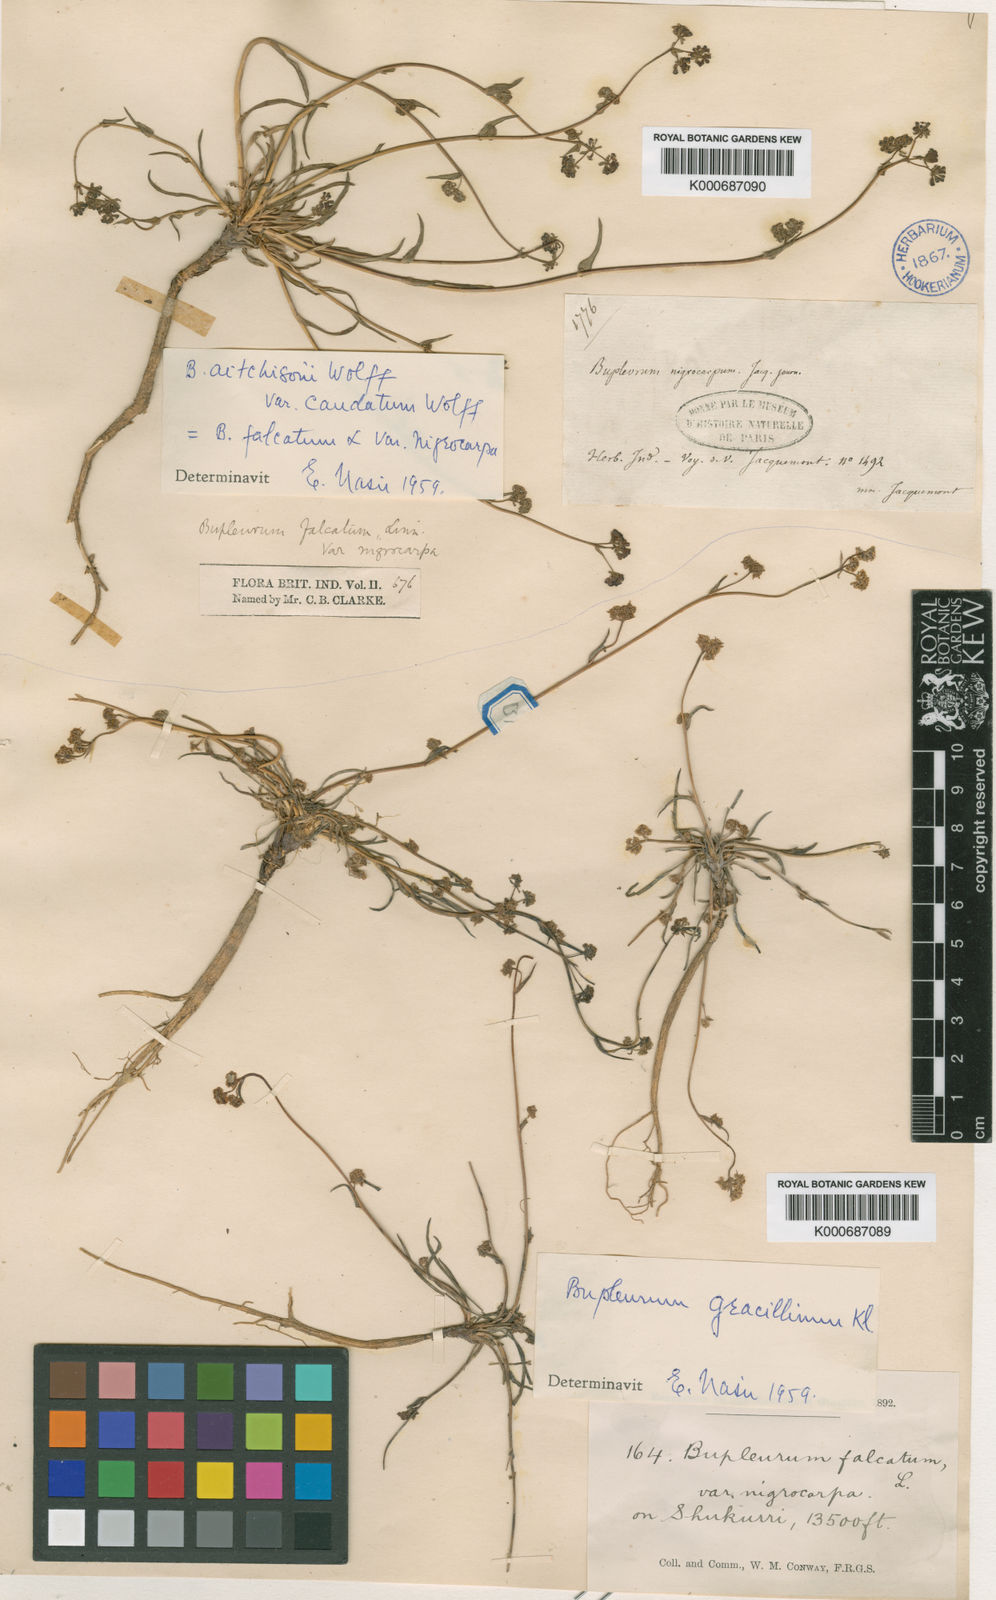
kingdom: Plantae
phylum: Tracheophyta
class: Magnoliopsida
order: Apiales
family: Apiaceae
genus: Bupleurum
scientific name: Bupleurum falcatum
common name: Sickle-leaved hare's-ear
